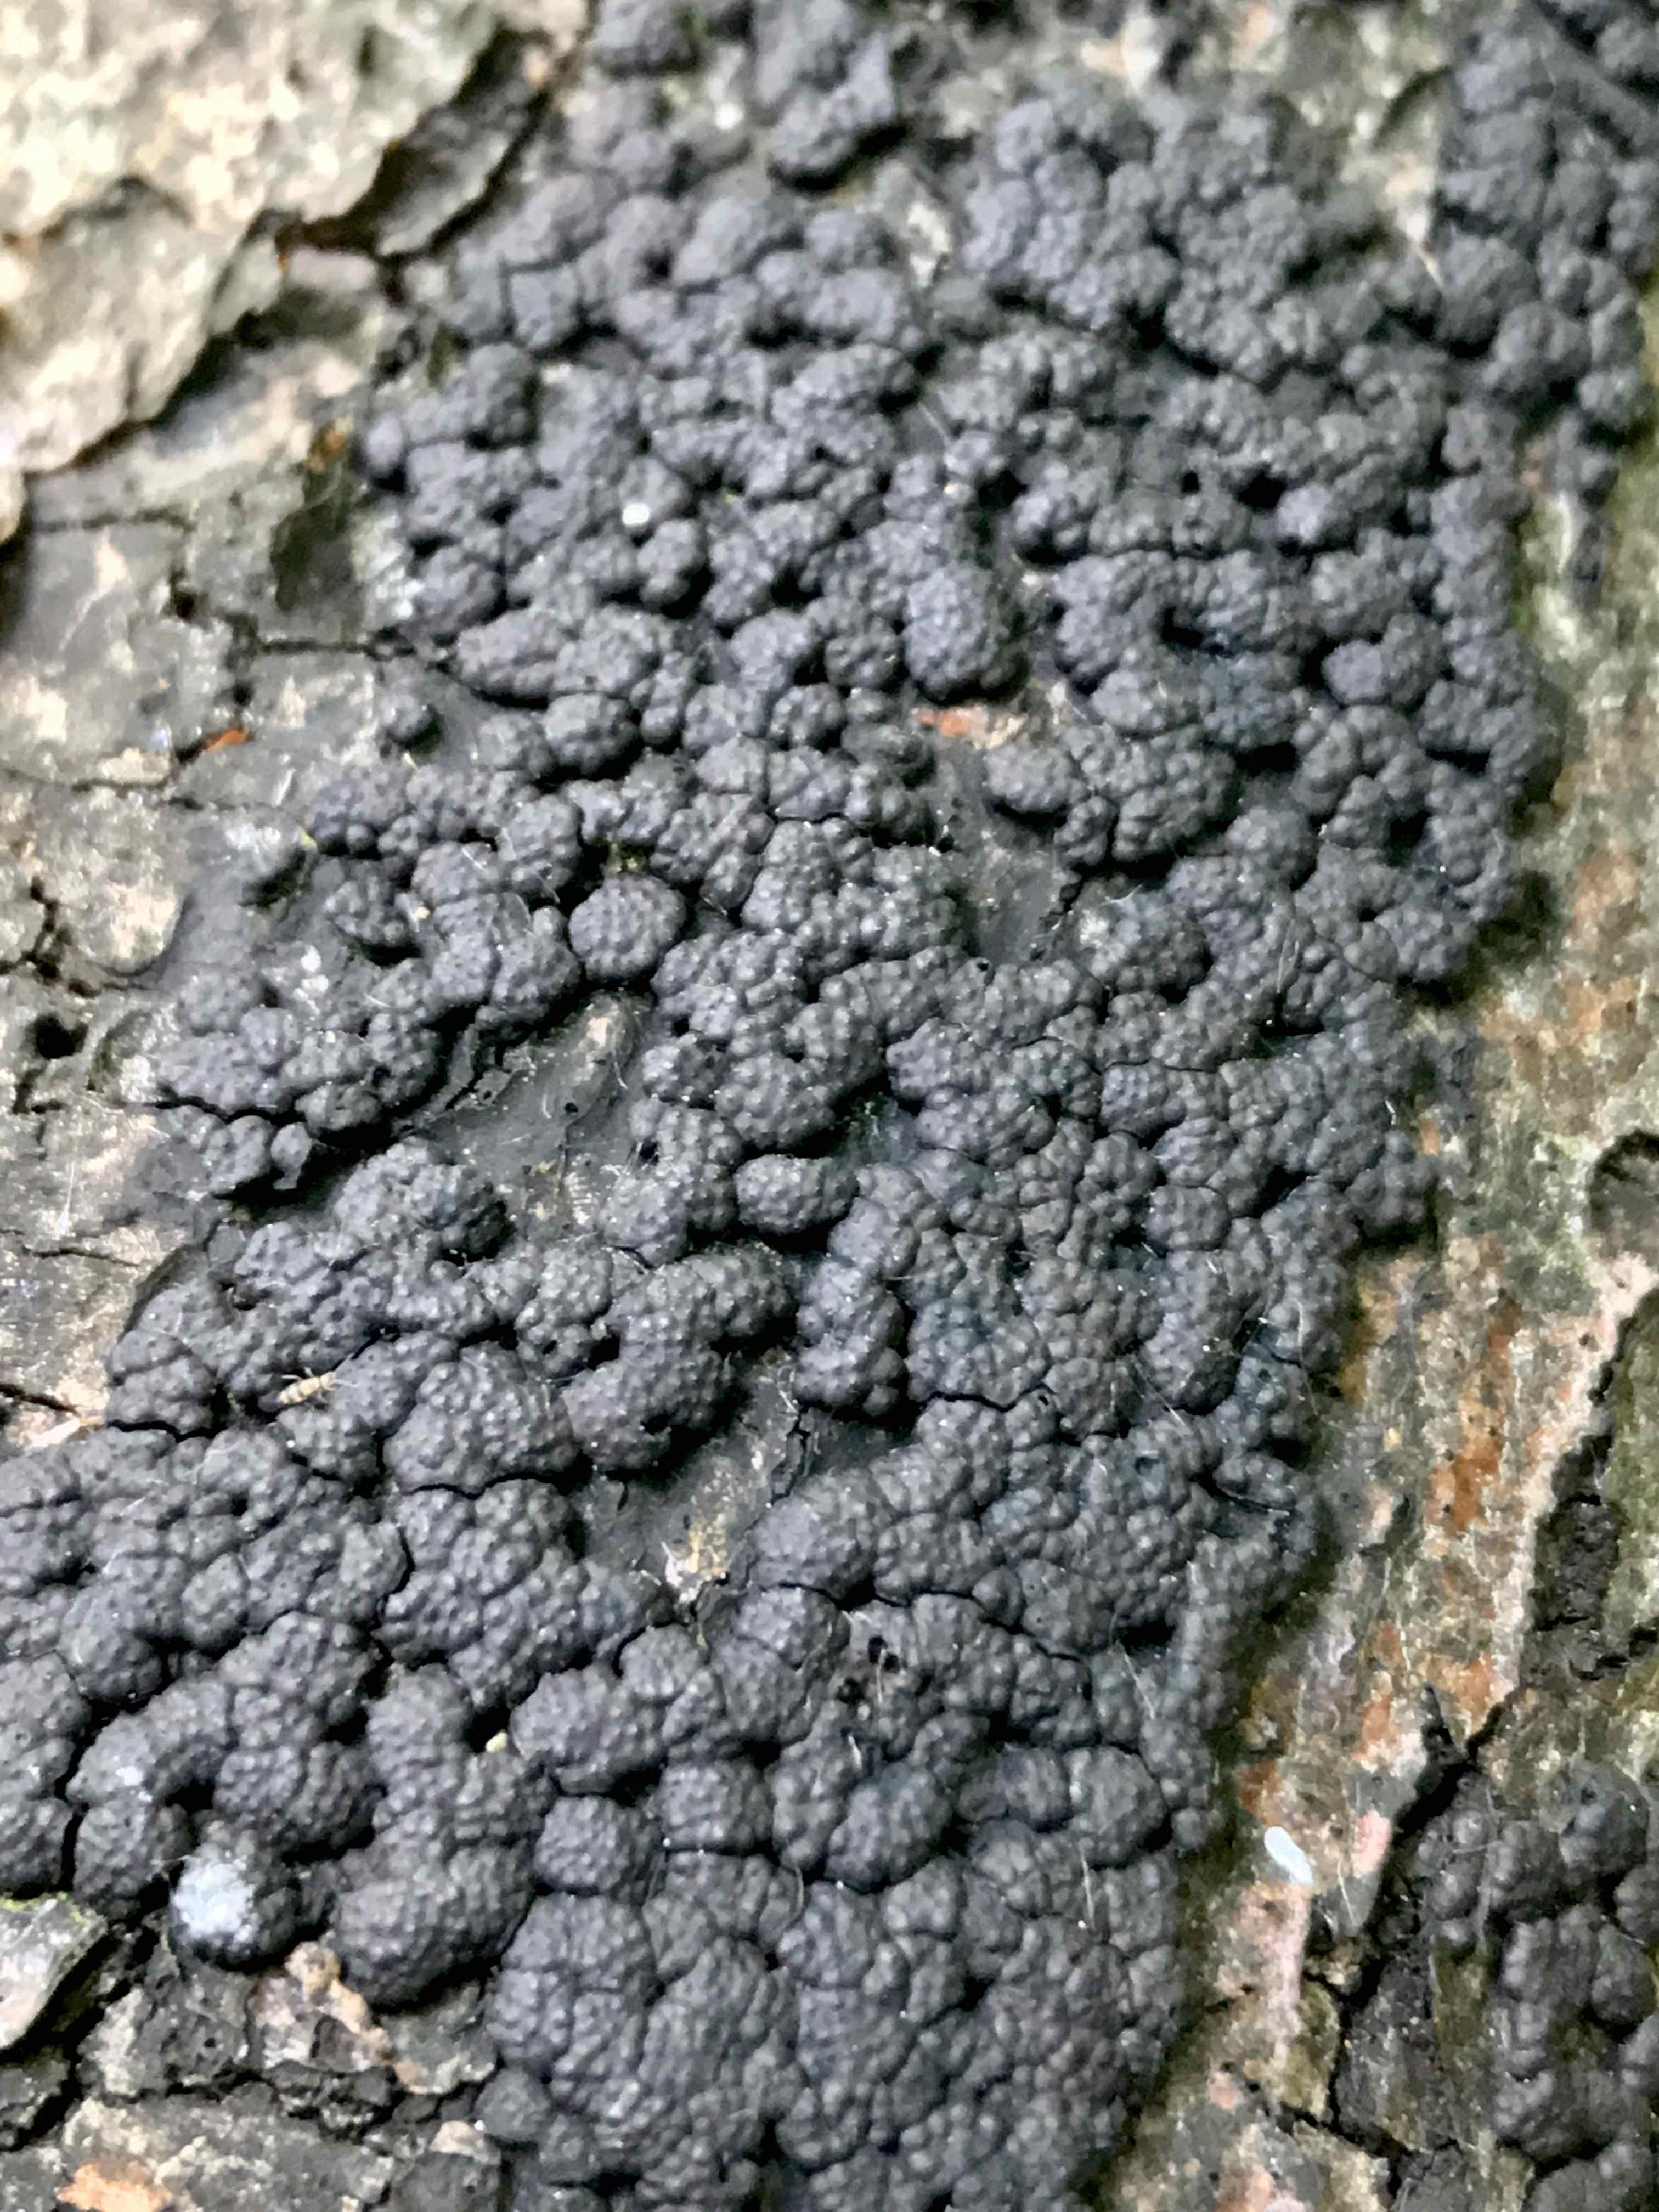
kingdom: Fungi
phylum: Ascomycota
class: Sordariomycetes
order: Xylariales
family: Hypoxylaceae
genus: Jackrogersella
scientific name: Jackrogersella cohaerens
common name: sammenflydende kulbær
